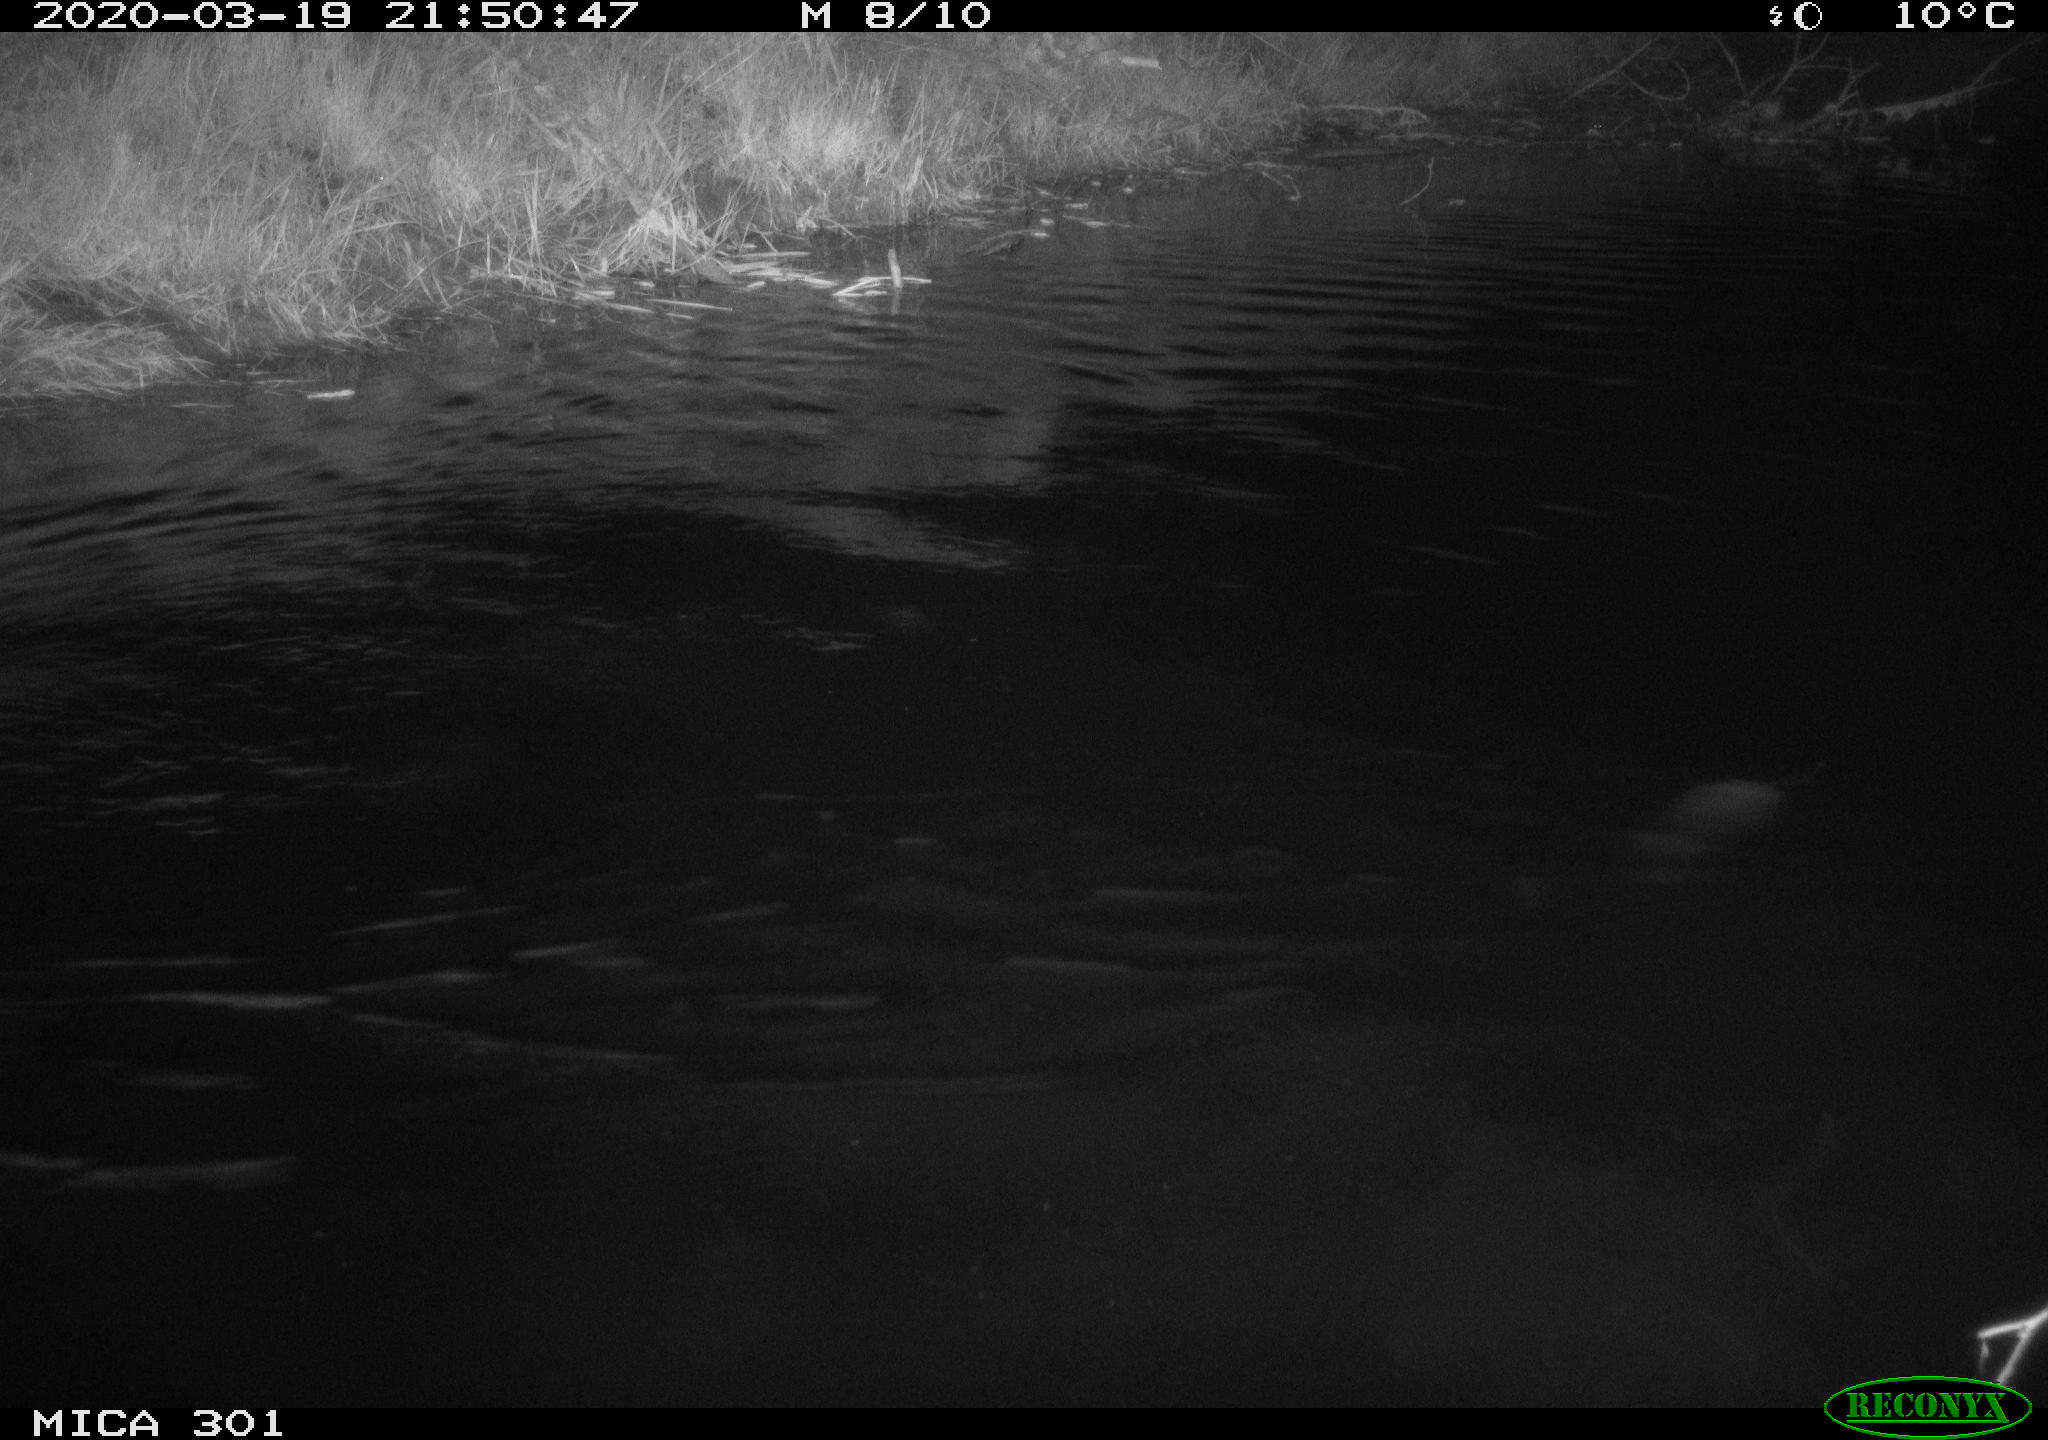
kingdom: Animalia
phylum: Chordata
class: Mammalia
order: Rodentia
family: Castoridae
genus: Castor
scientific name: Castor fiber
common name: Eurasian beaver
